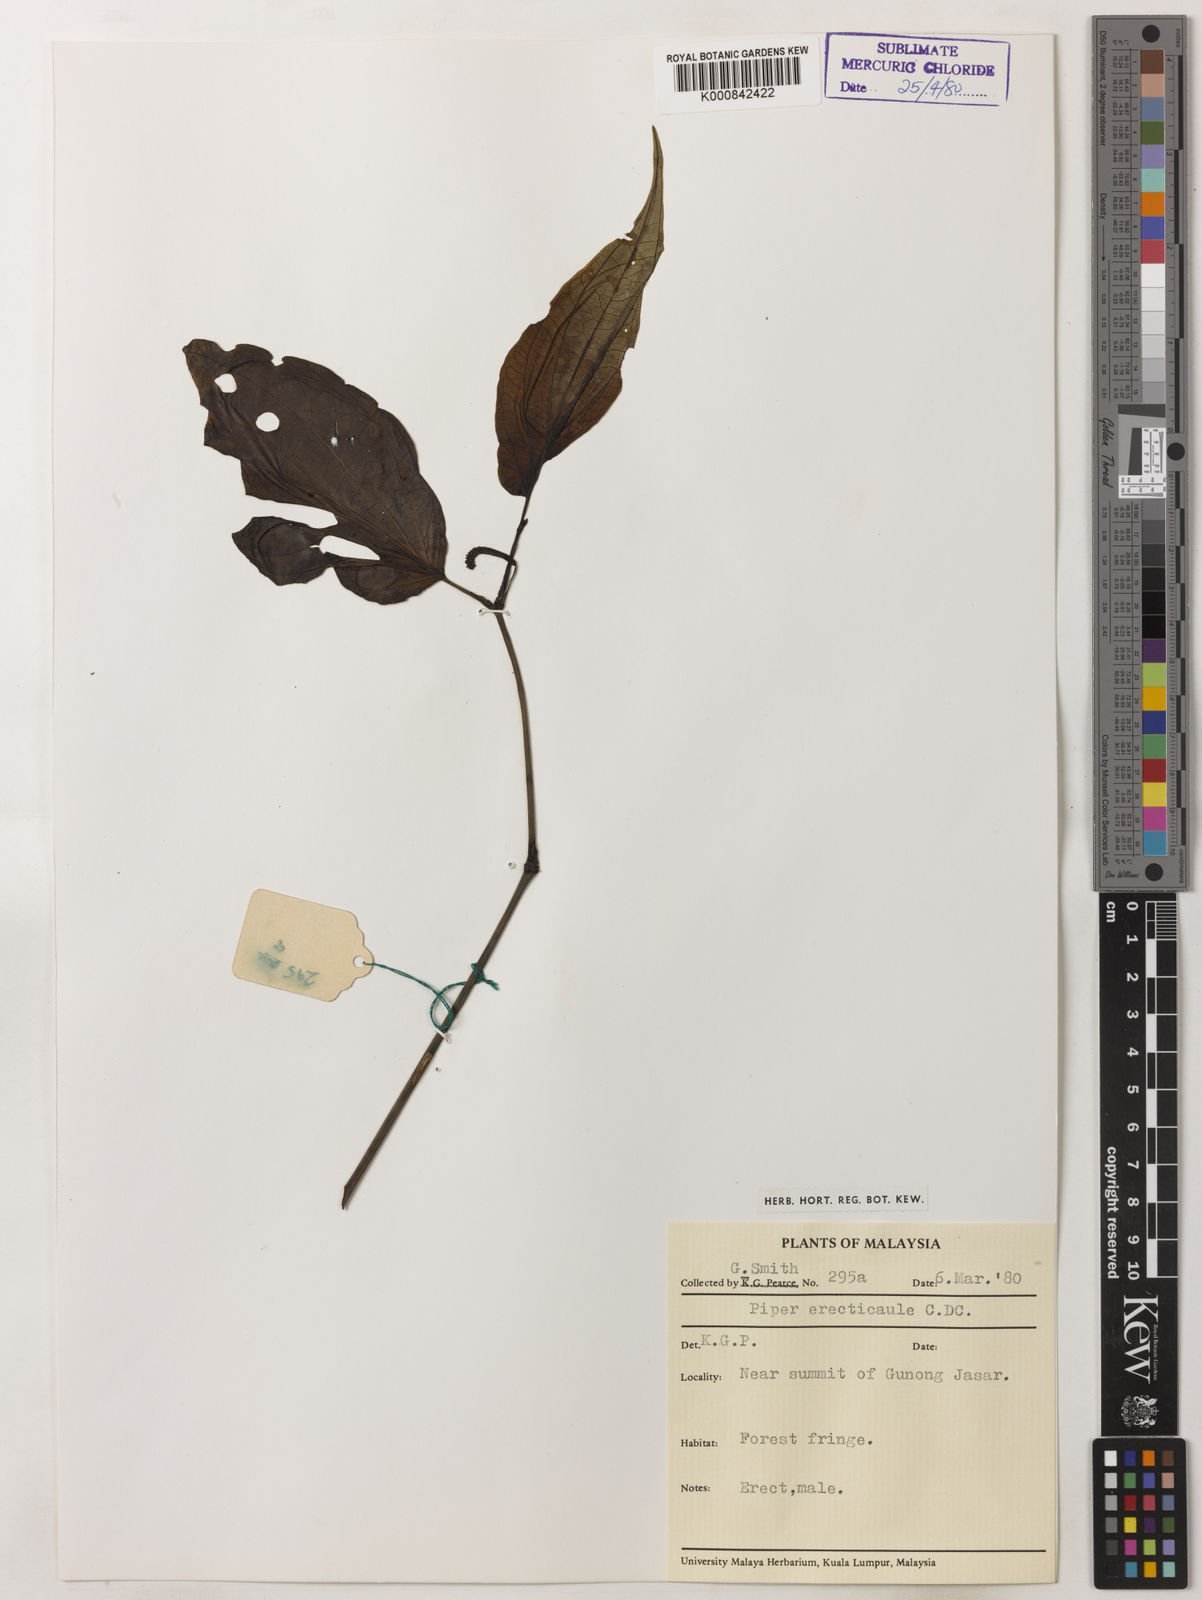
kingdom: Plantae
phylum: Tracheophyta
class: Magnoliopsida
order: Piperales
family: Piperaceae
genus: Piper
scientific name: Piper erecticaule
